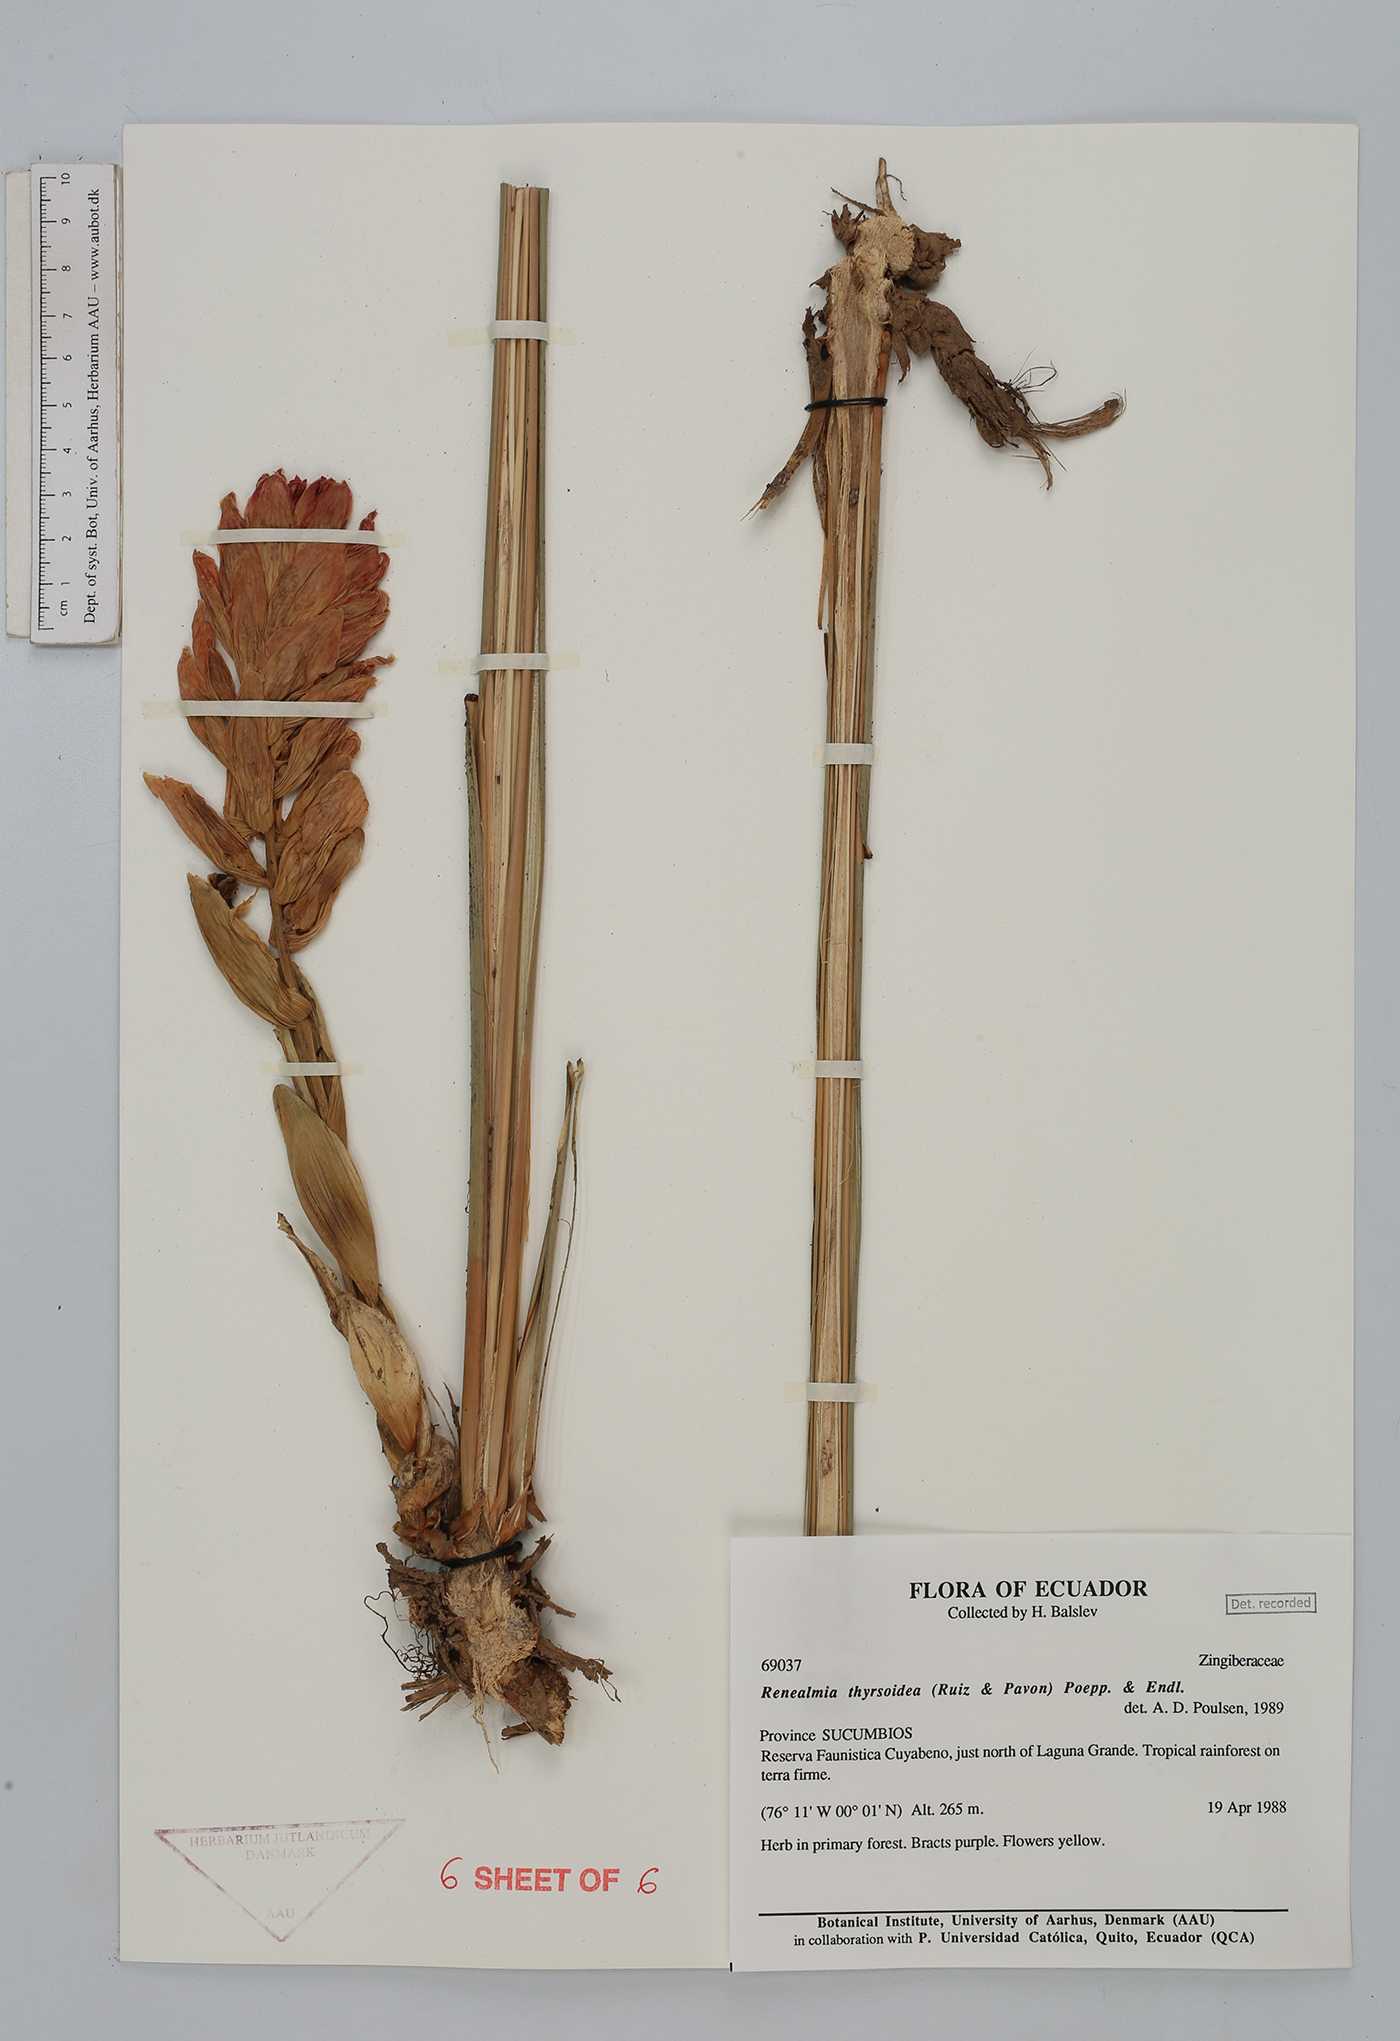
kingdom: Plantae
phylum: Tracheophyta
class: Liliopsida
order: Zingiberales
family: Zingiberaceae
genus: Renealmia
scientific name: Renealmia thyrsoidea
